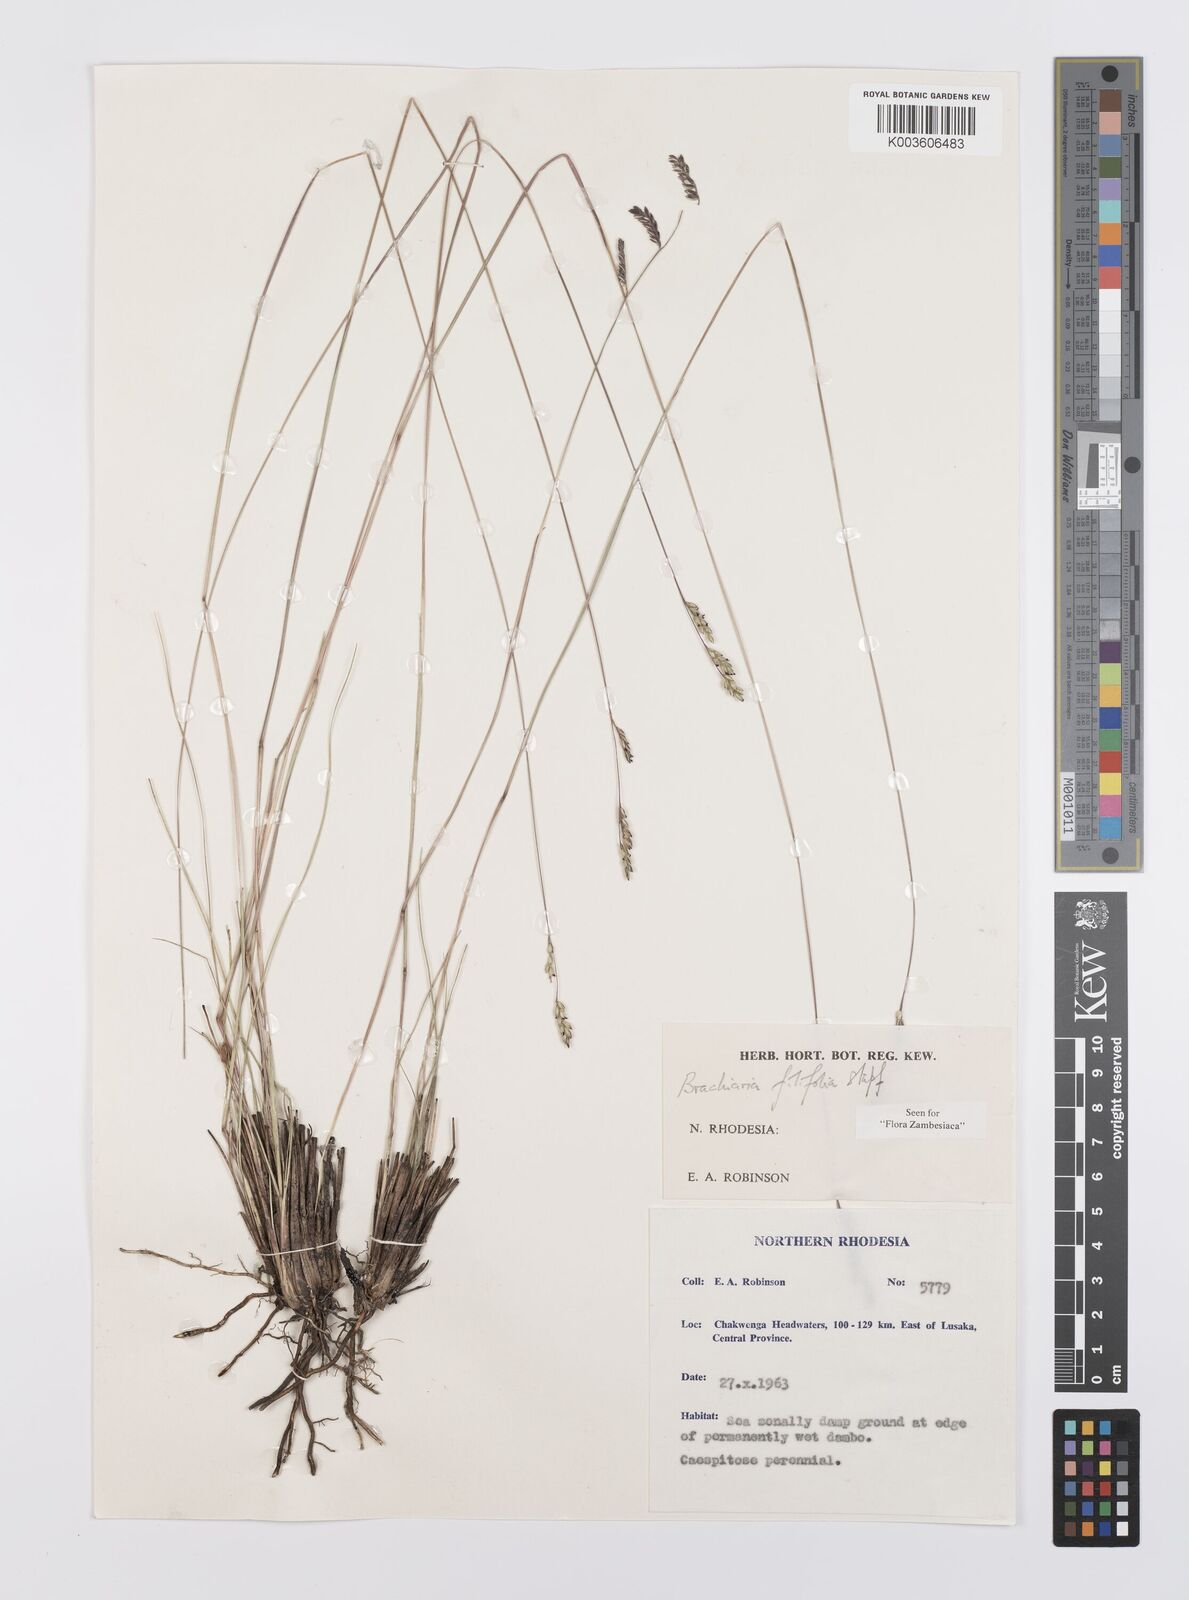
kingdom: Plantae
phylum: Tracheophyta
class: Liliopsida
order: Poales
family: Poaceae
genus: Urochloa
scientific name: Urochloa subulifolia
